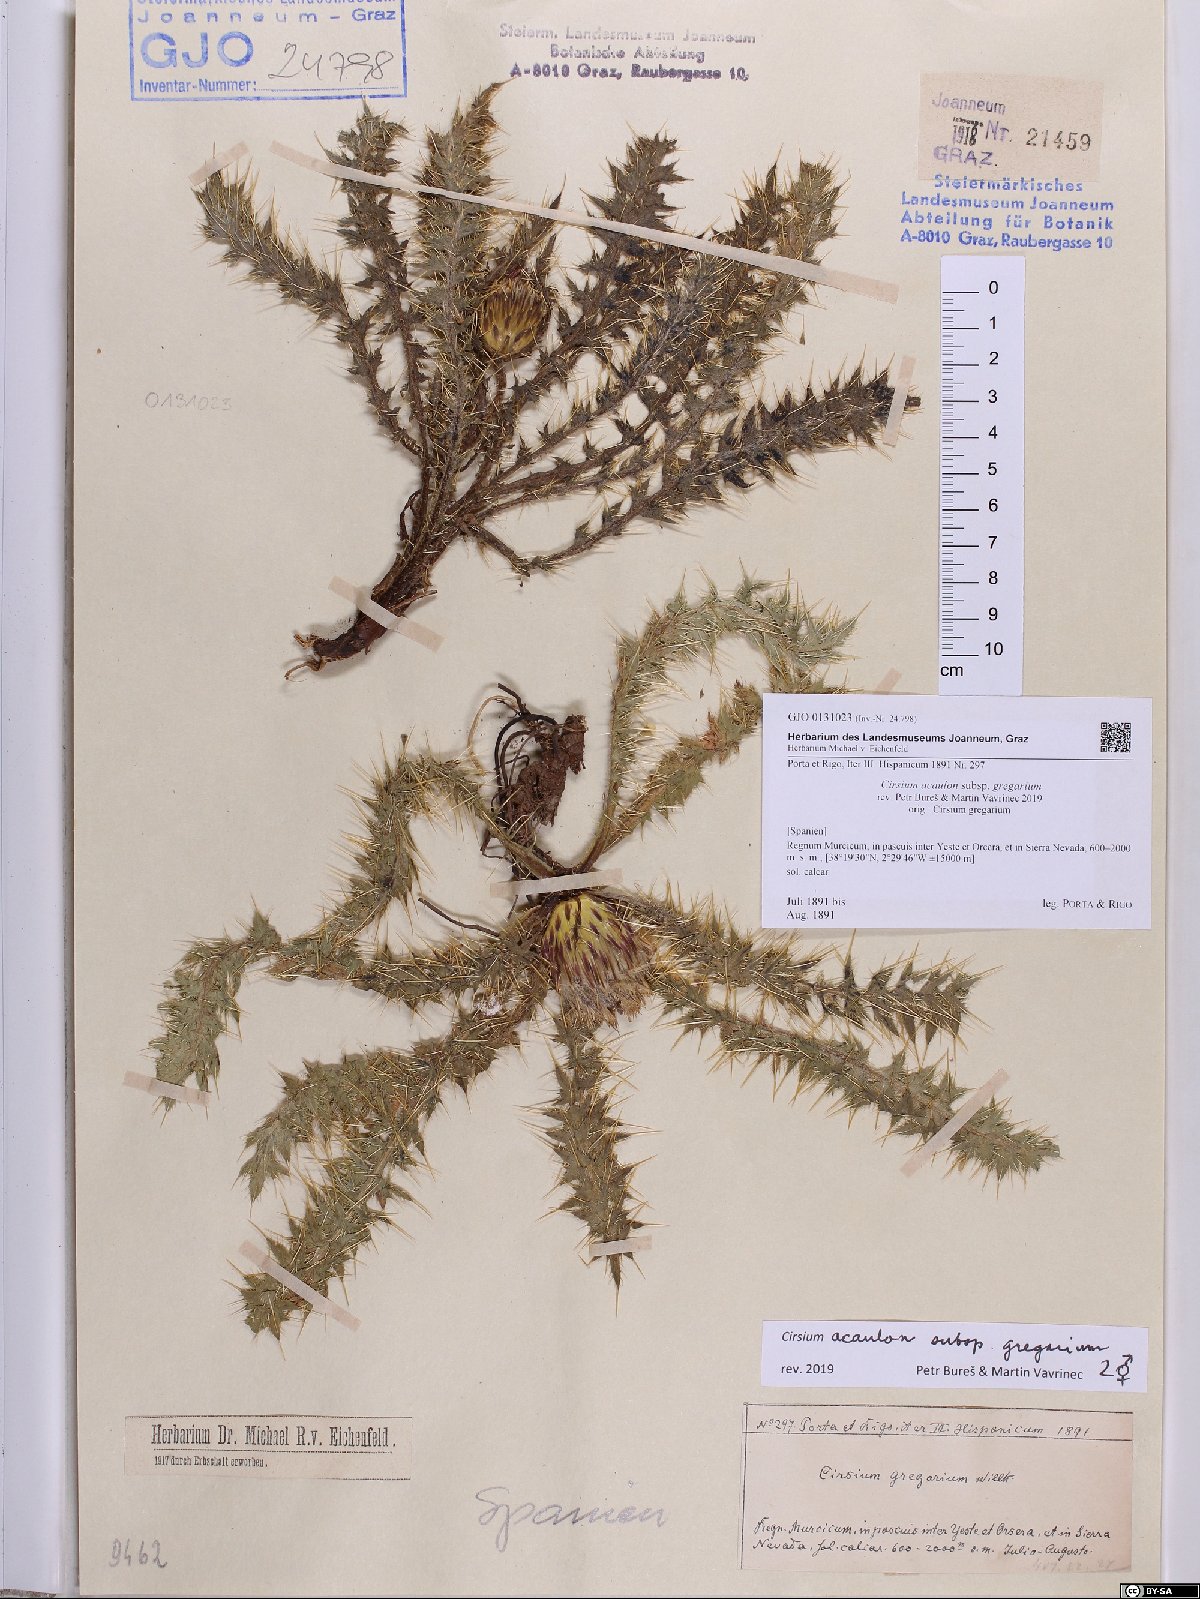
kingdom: Plantae
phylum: Tracheophyta
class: Magnoliopsida
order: Asterales
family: Asteraceae
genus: Cirsium
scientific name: Cirsium acaule
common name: Dwarf thistle
